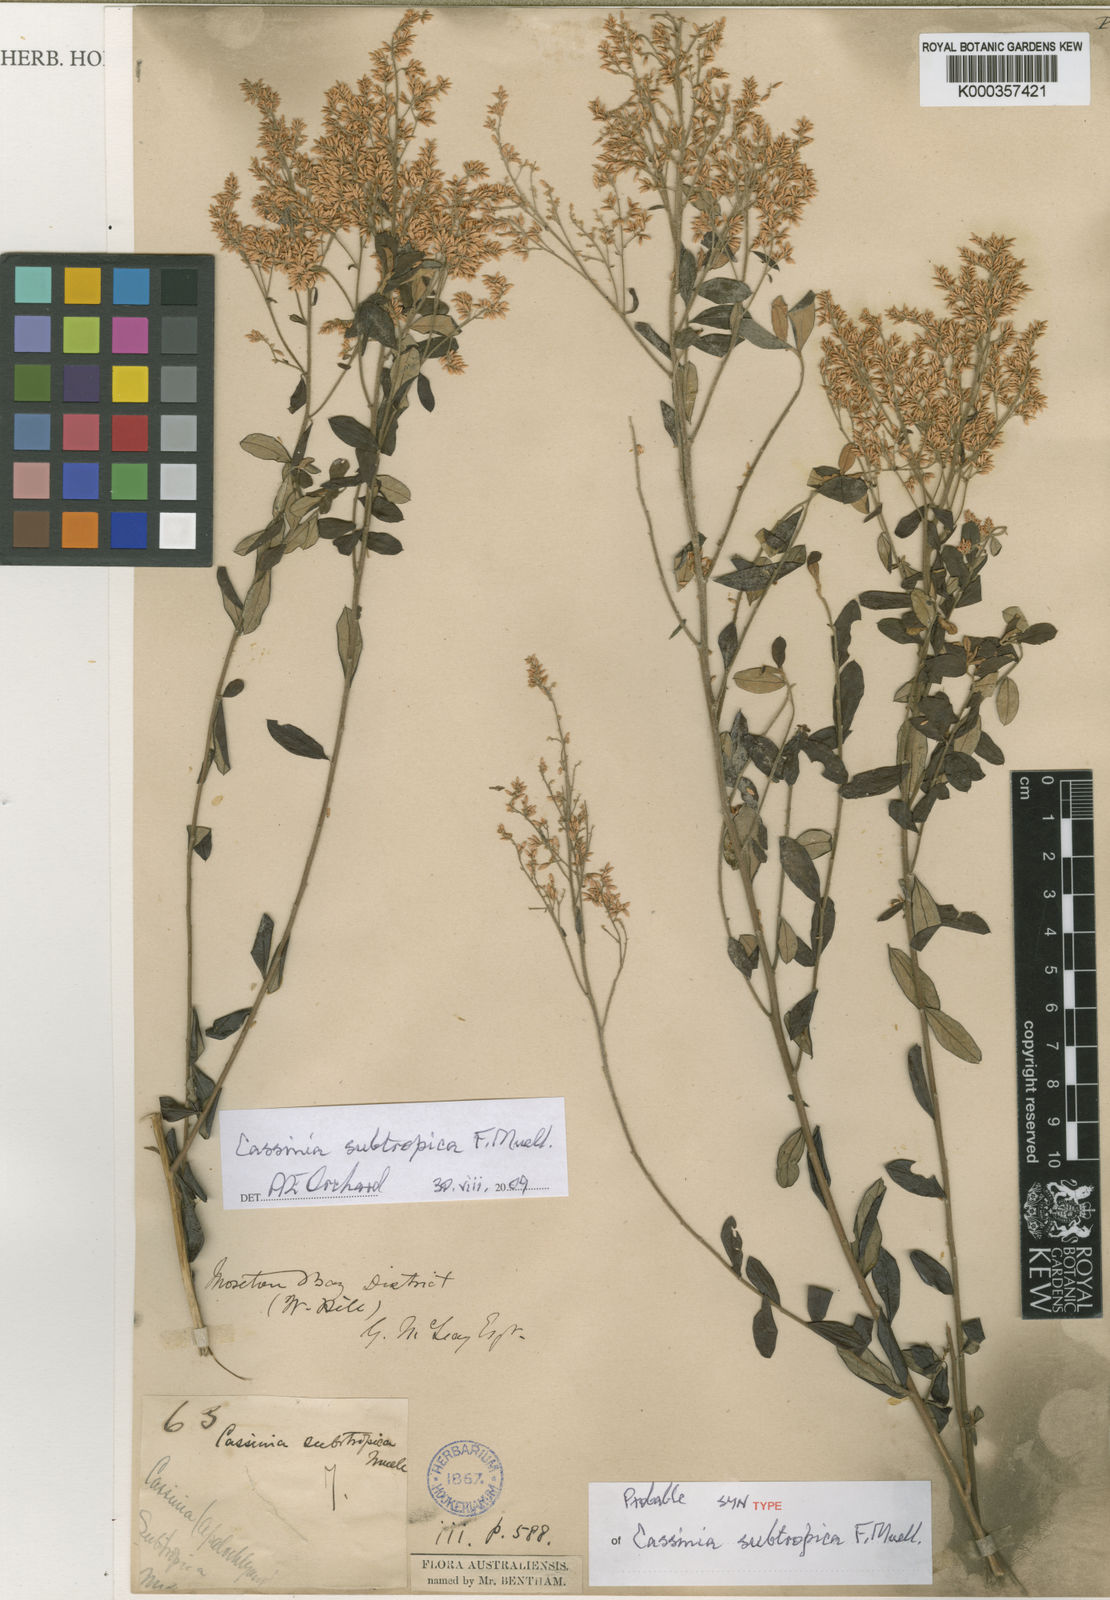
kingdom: Plantae
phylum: Tracheophyta
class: Magnoliopsida
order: Asterales
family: Asteraceae
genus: Cassinia
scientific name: Cassinia subtropica
